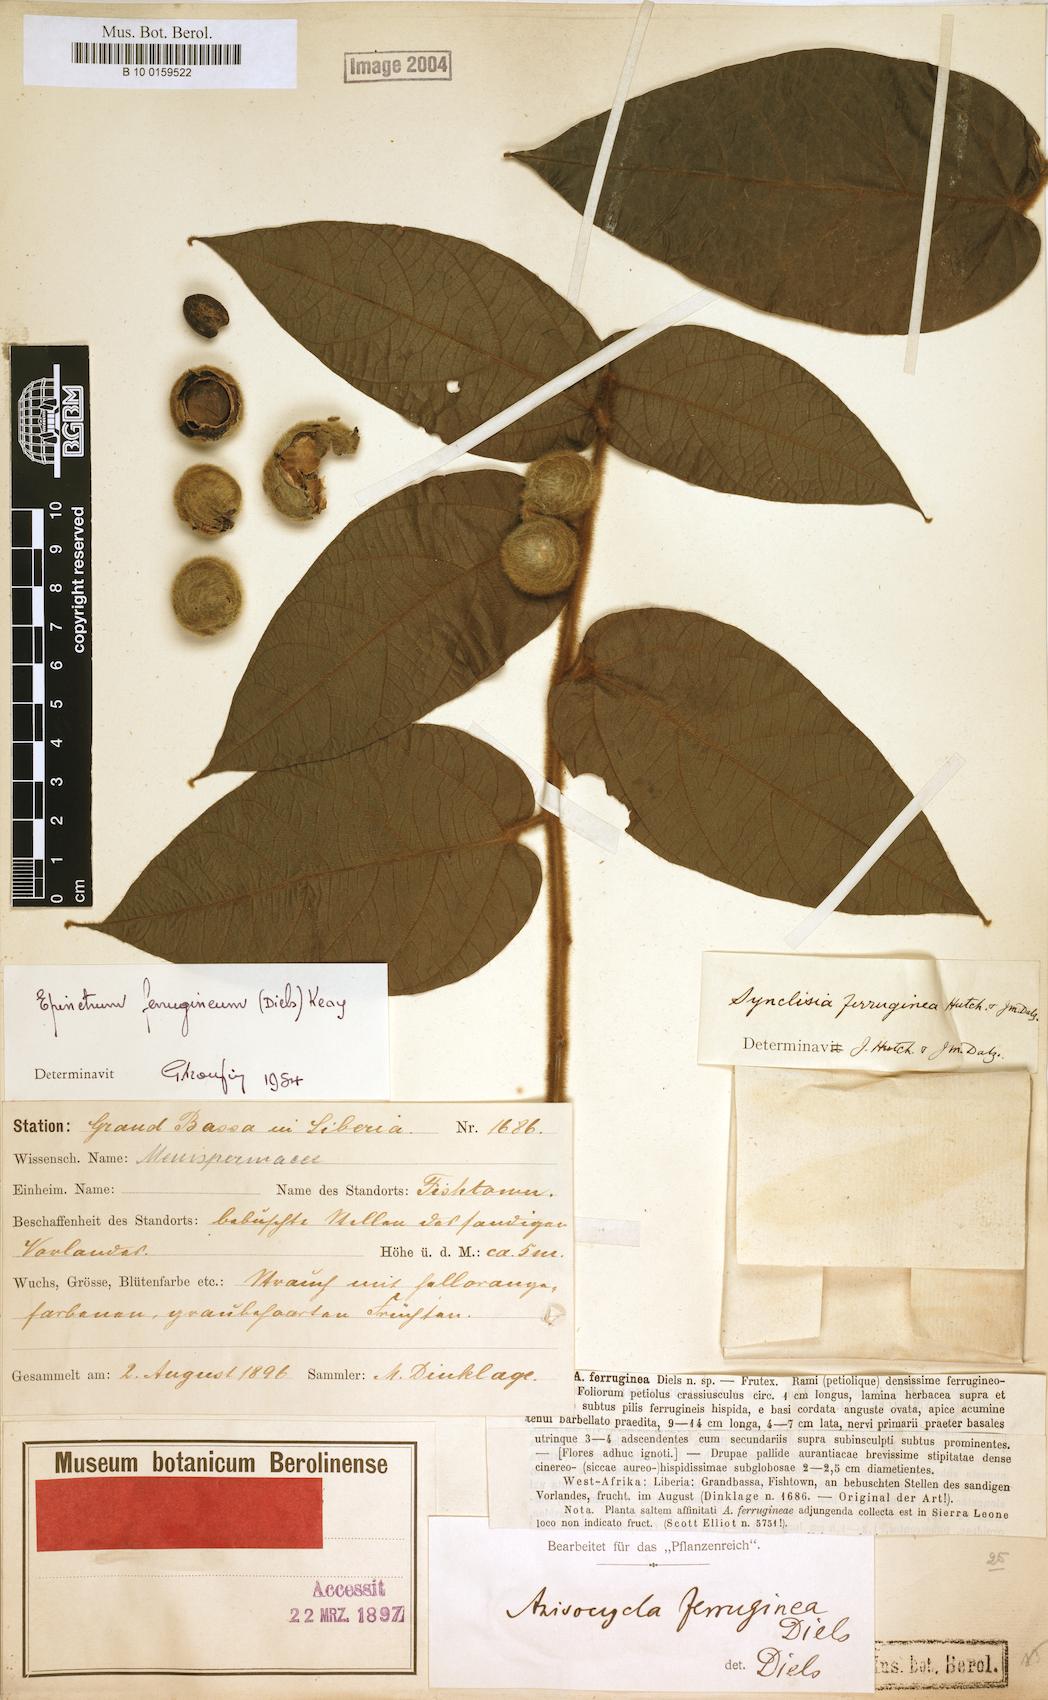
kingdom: Plantae
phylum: Tracheophyta
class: Magnoliopsida
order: Ranunculales
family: Menispermaceae
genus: Albertisia
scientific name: Albertisia ferruginea
